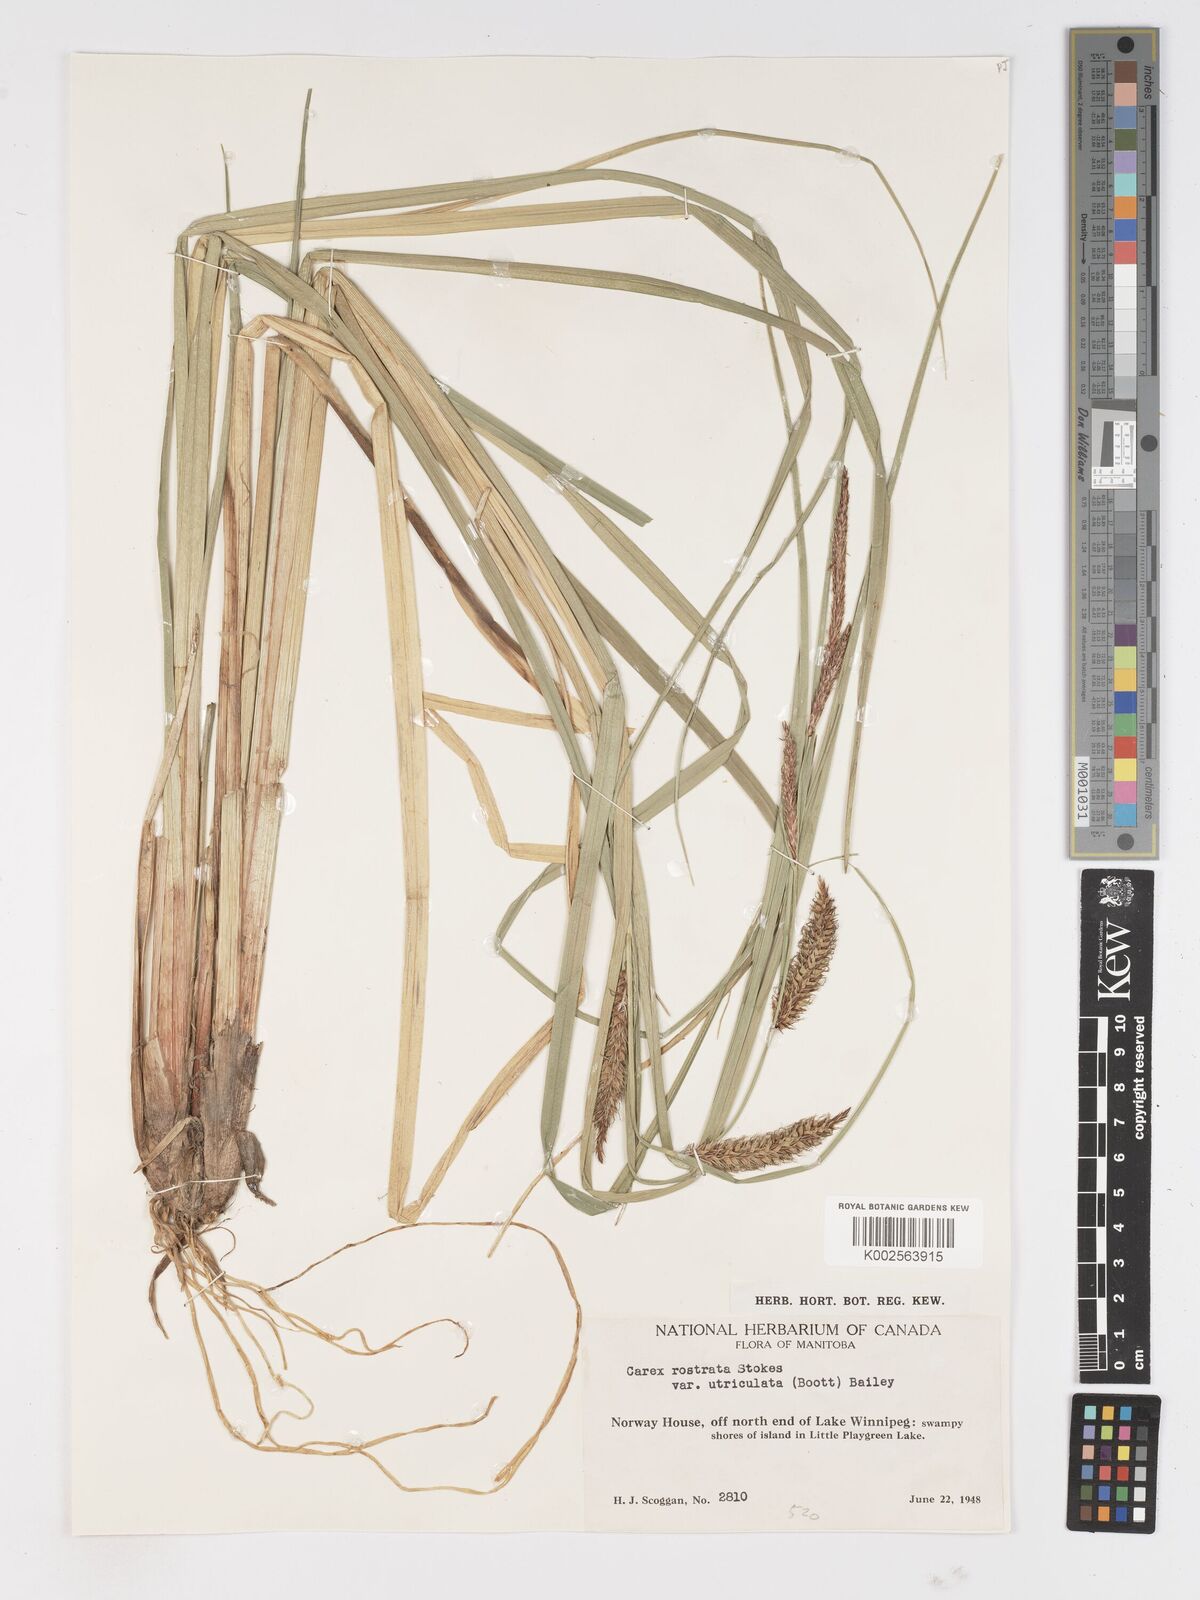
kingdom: Plantae
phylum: Tracheophyta
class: Liliopsida
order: Poales
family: Cyperaceae
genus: Carex
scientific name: Carex rostrata
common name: Bottle sedge
